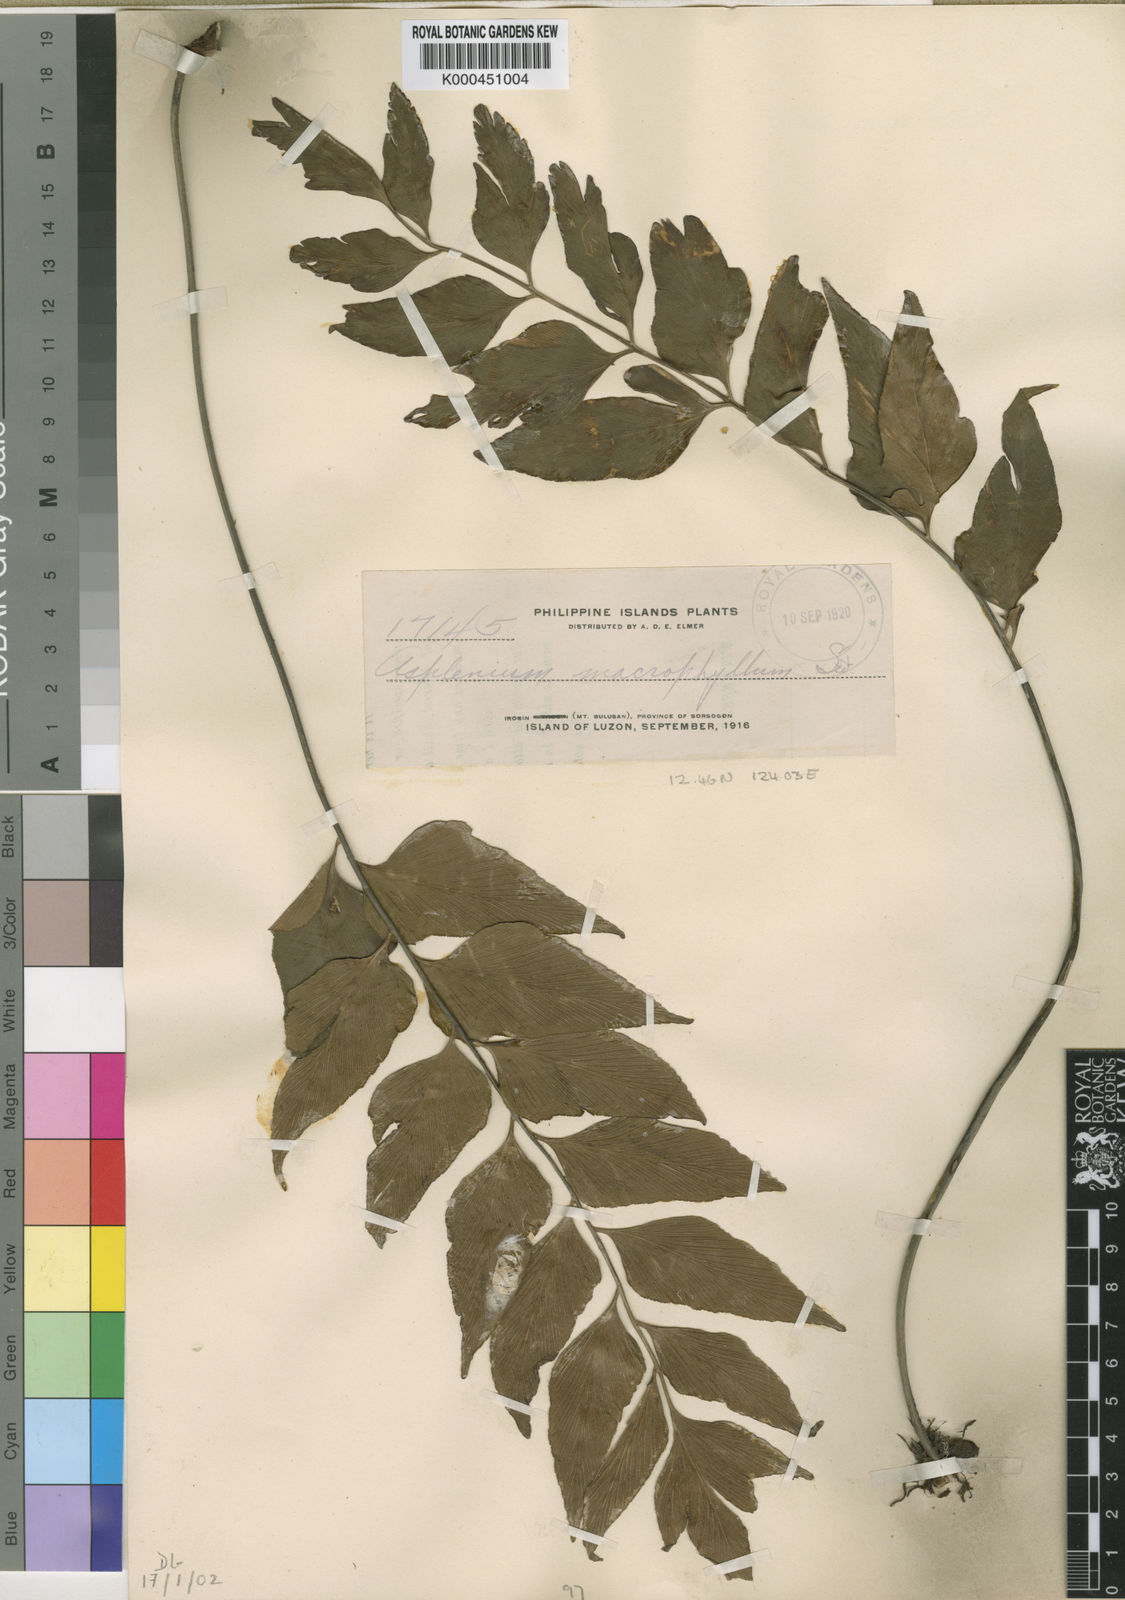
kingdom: Plantae
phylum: Tracheophyta
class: Polypodiopsida
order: Polypodiales
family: Aspleniaceae
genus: Asplenium
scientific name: Asplenium macrophyllum
